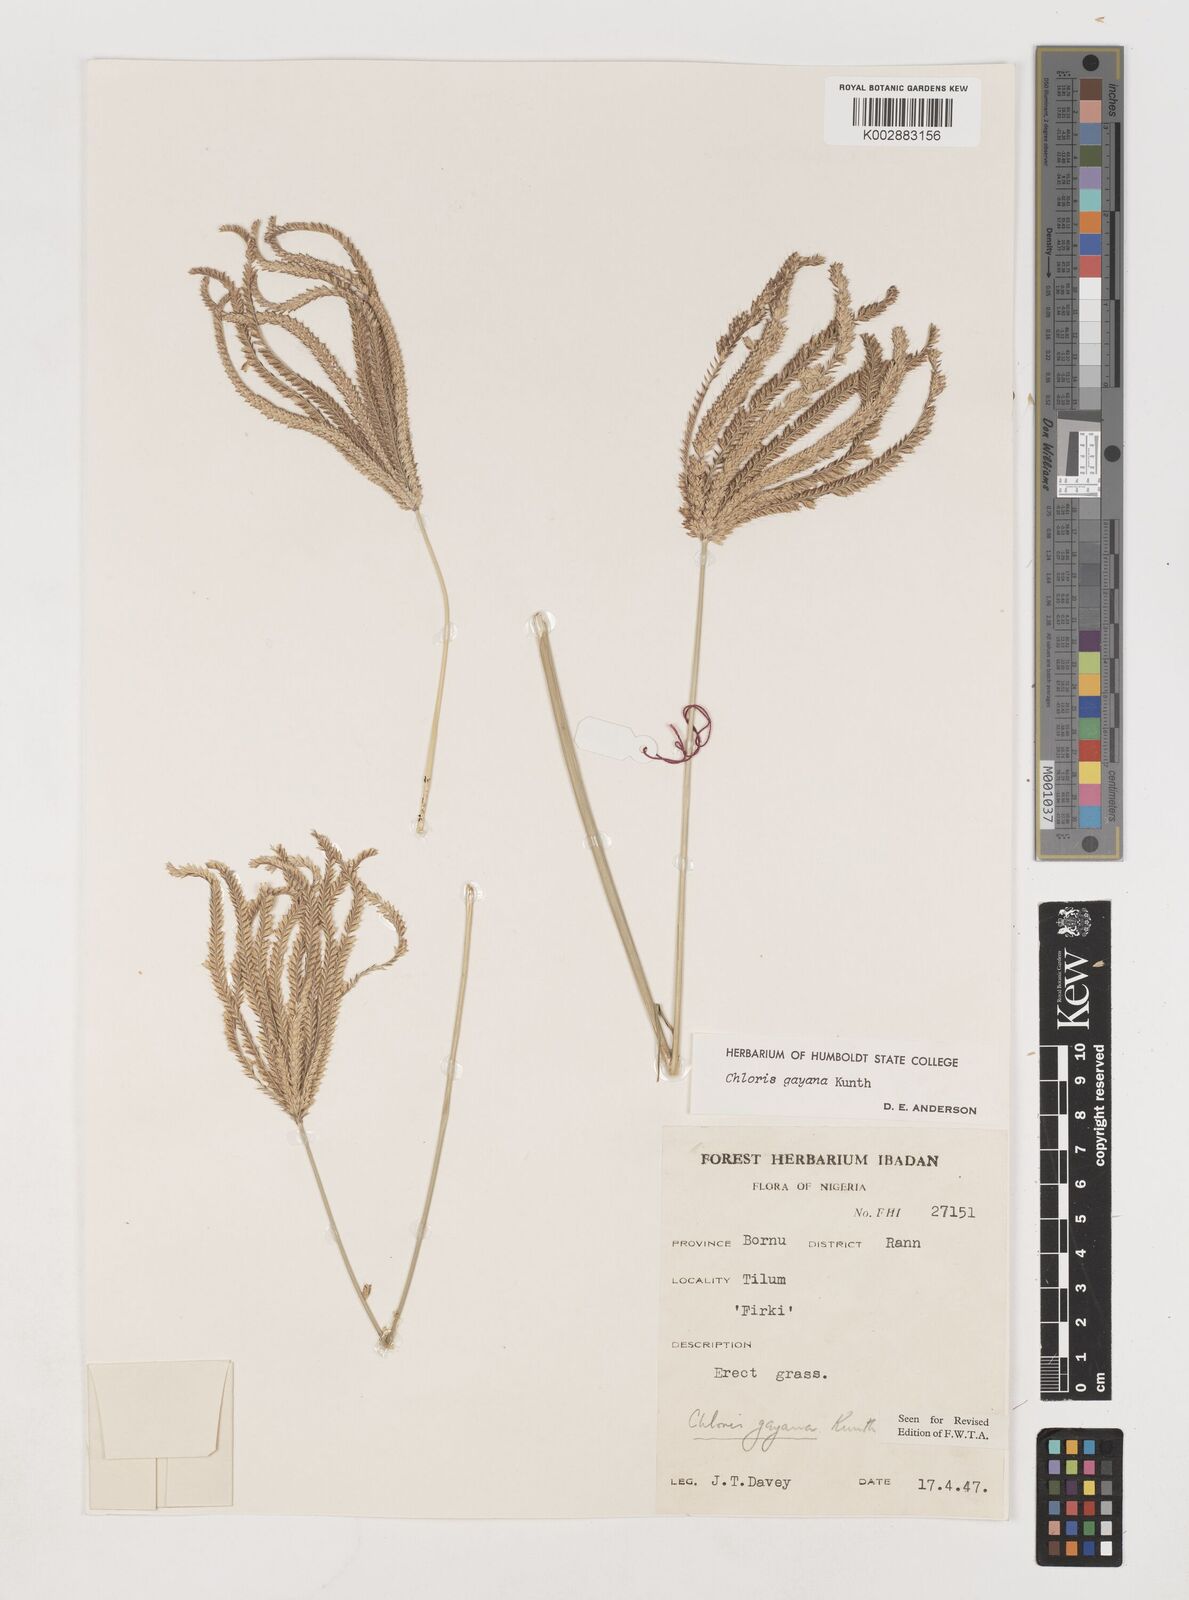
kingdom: Plantae
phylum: Tracheophyta
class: Liliopsida
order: Poales
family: Poaceae
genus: Chloris
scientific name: Chloris gayana
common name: Rhodes grass
